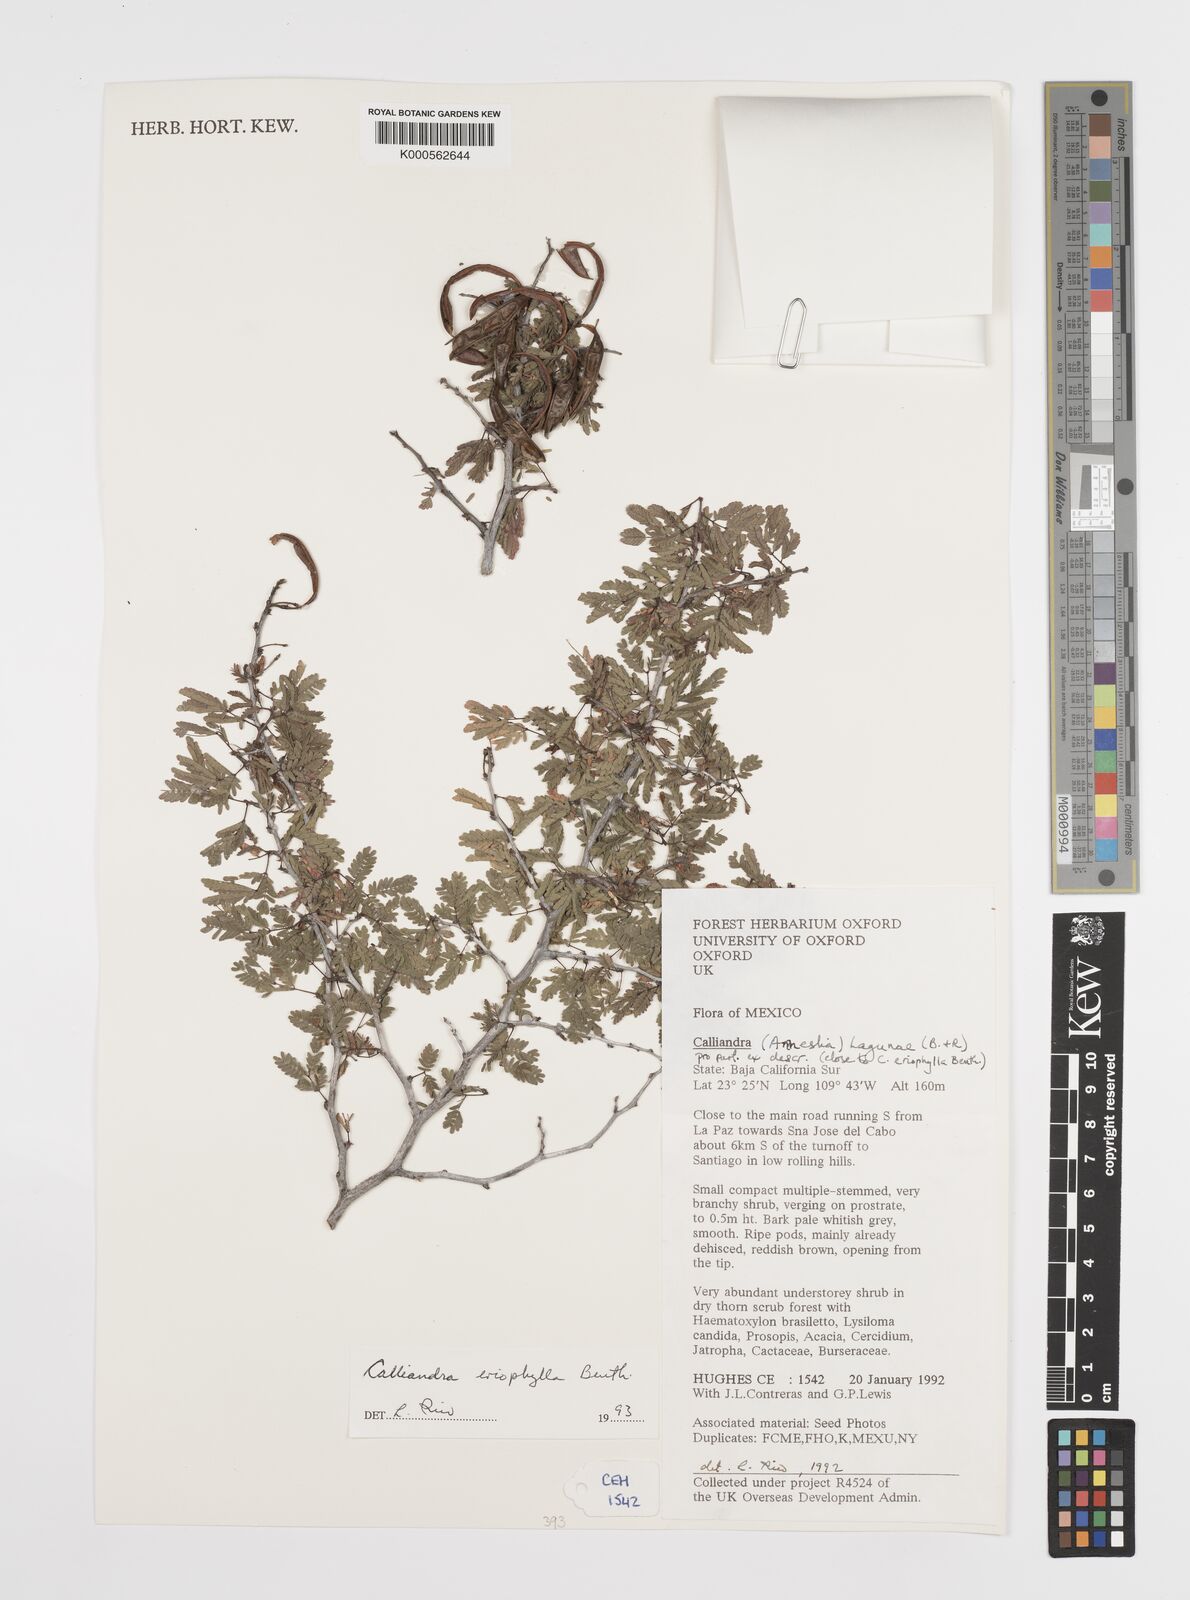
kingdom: Plantae
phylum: Tracheophyta
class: Magnoliopsida
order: Fabales
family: Fabaceae
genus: Calliandra
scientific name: Calliandra eriophylla
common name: Fairy-duster
